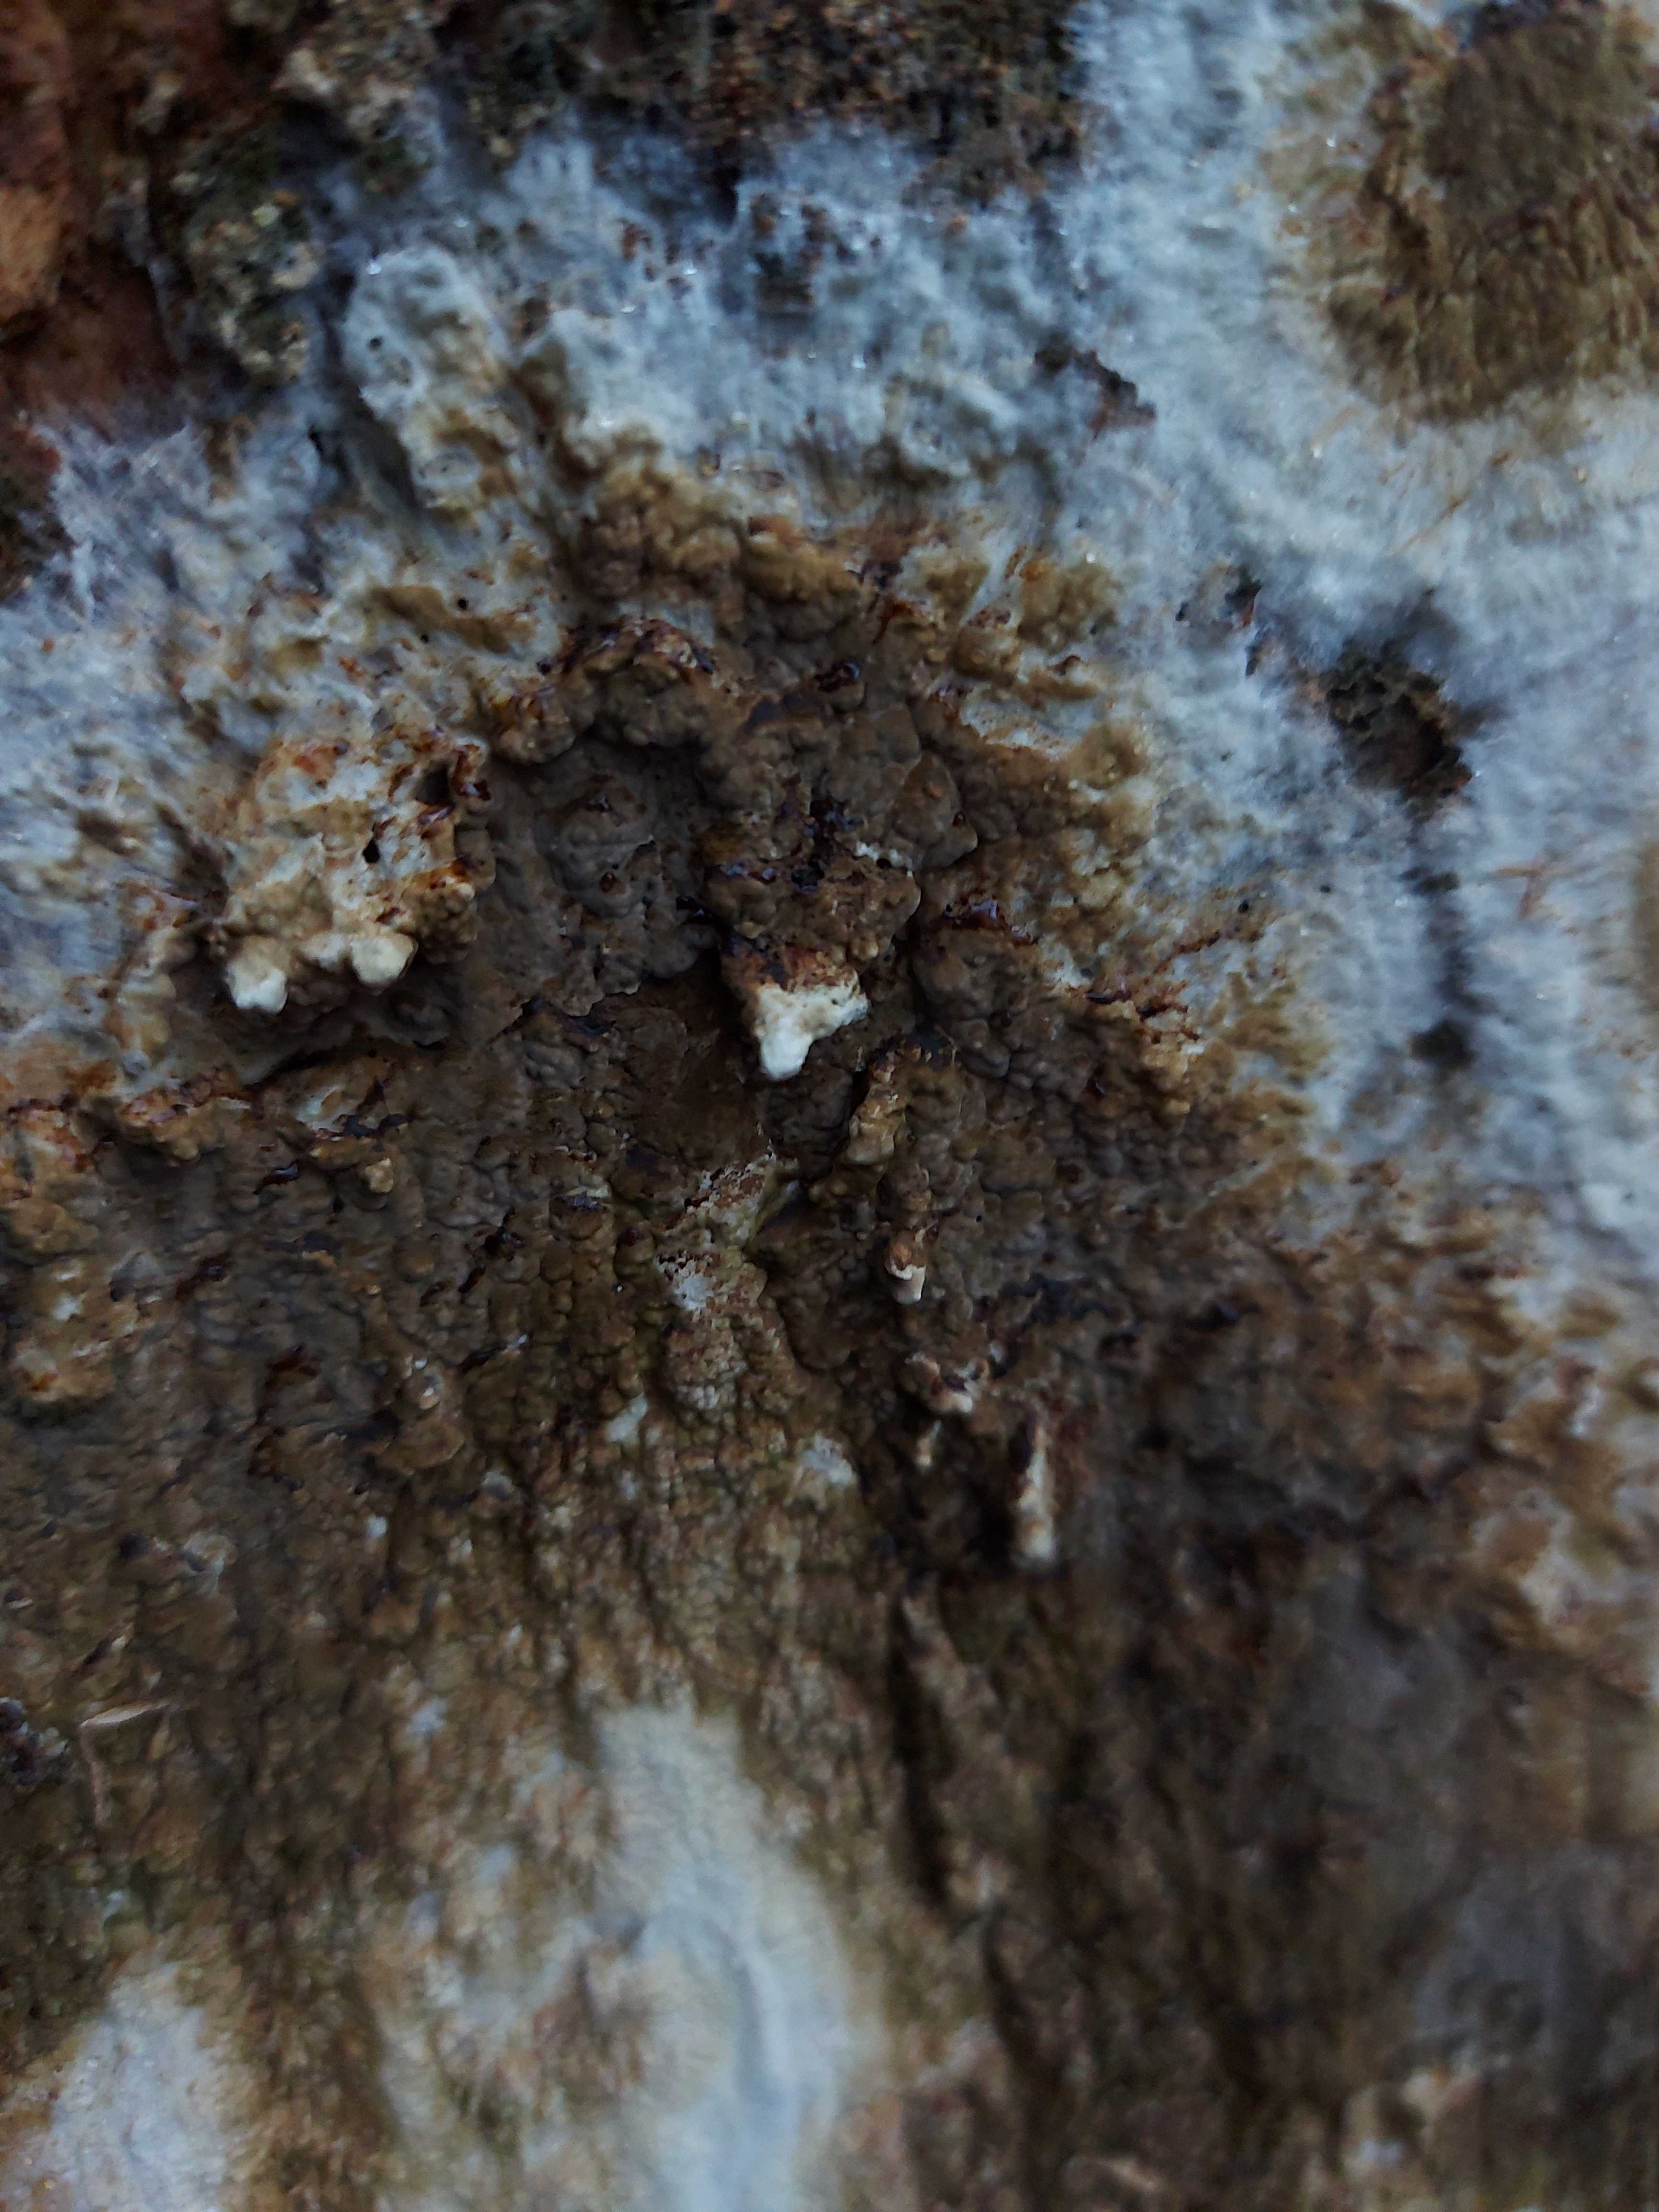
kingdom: Fungi
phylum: Basidiomycota
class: Agaricomycetes
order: Boletales
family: Coniophoraceae
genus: Coniophora
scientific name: Coniophora puteana
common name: gul tømmersvamp
